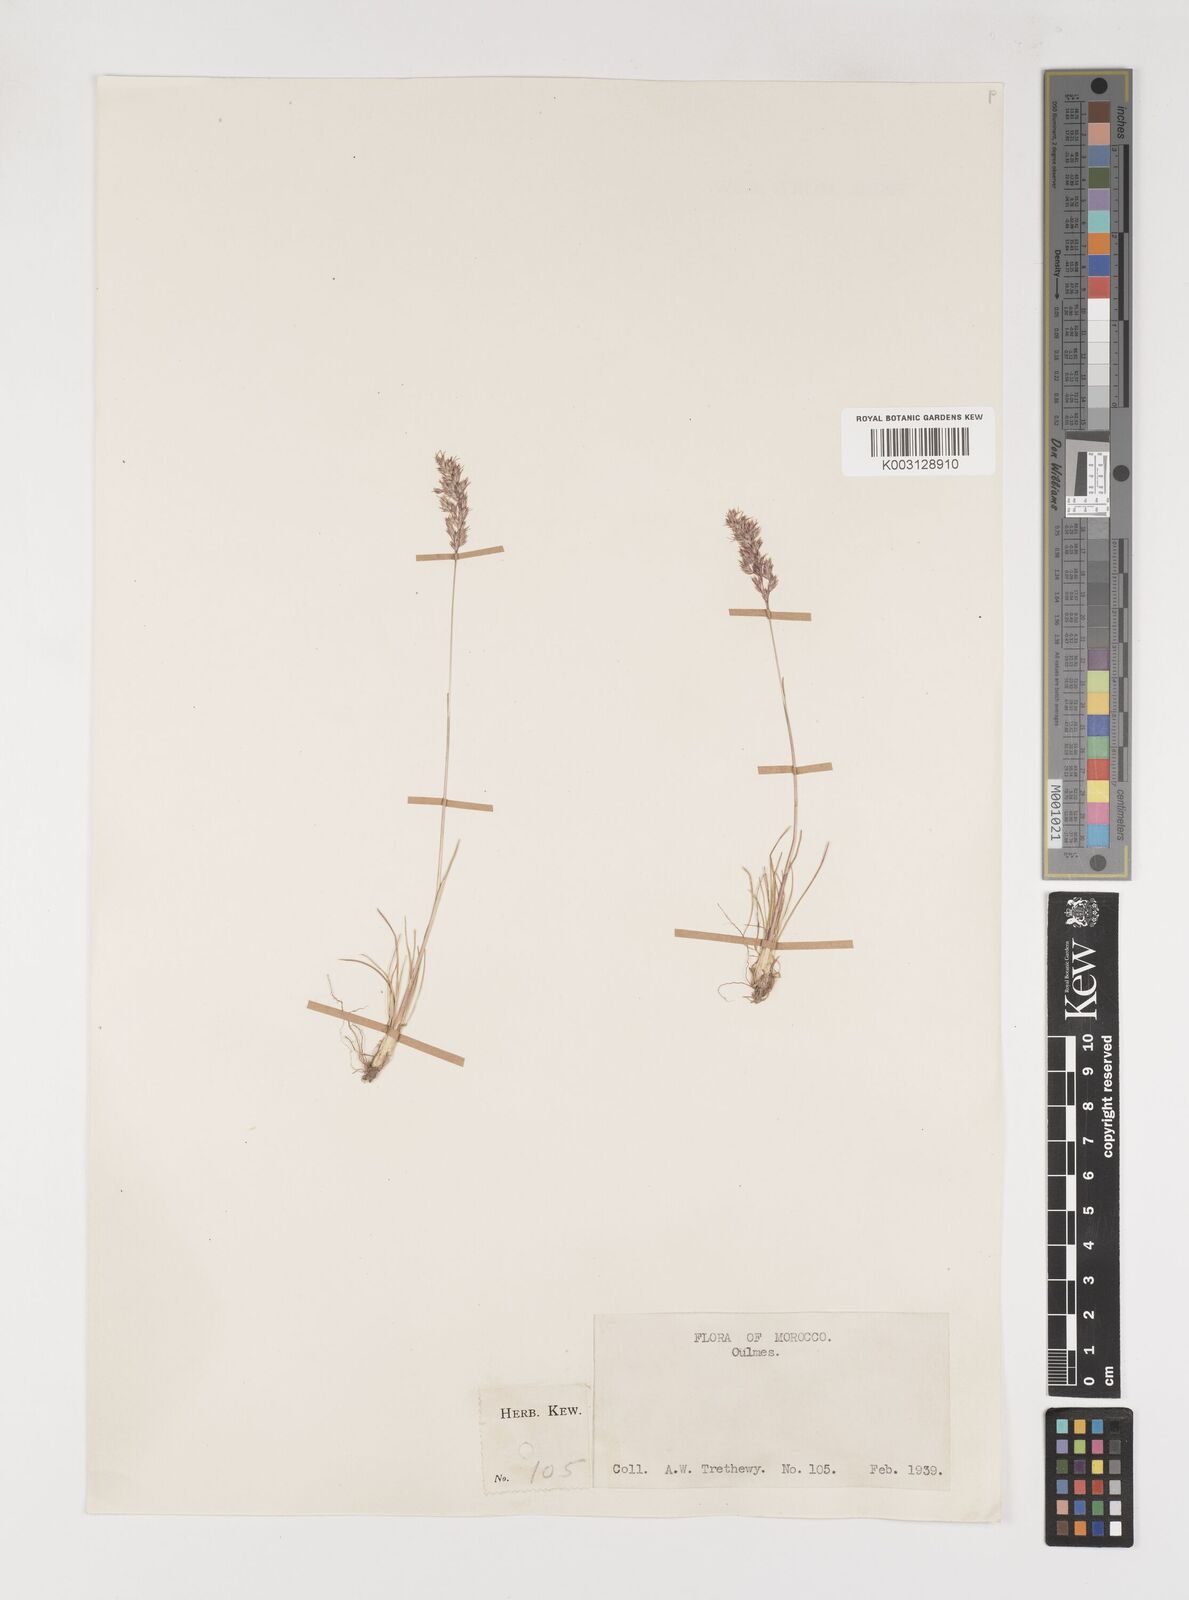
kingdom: Plantae
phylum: Tracheophyta
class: Liliopsida
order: Poales
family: Poaceae
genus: Poa
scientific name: Poa bulbosa
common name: Bulbous bluegrass
